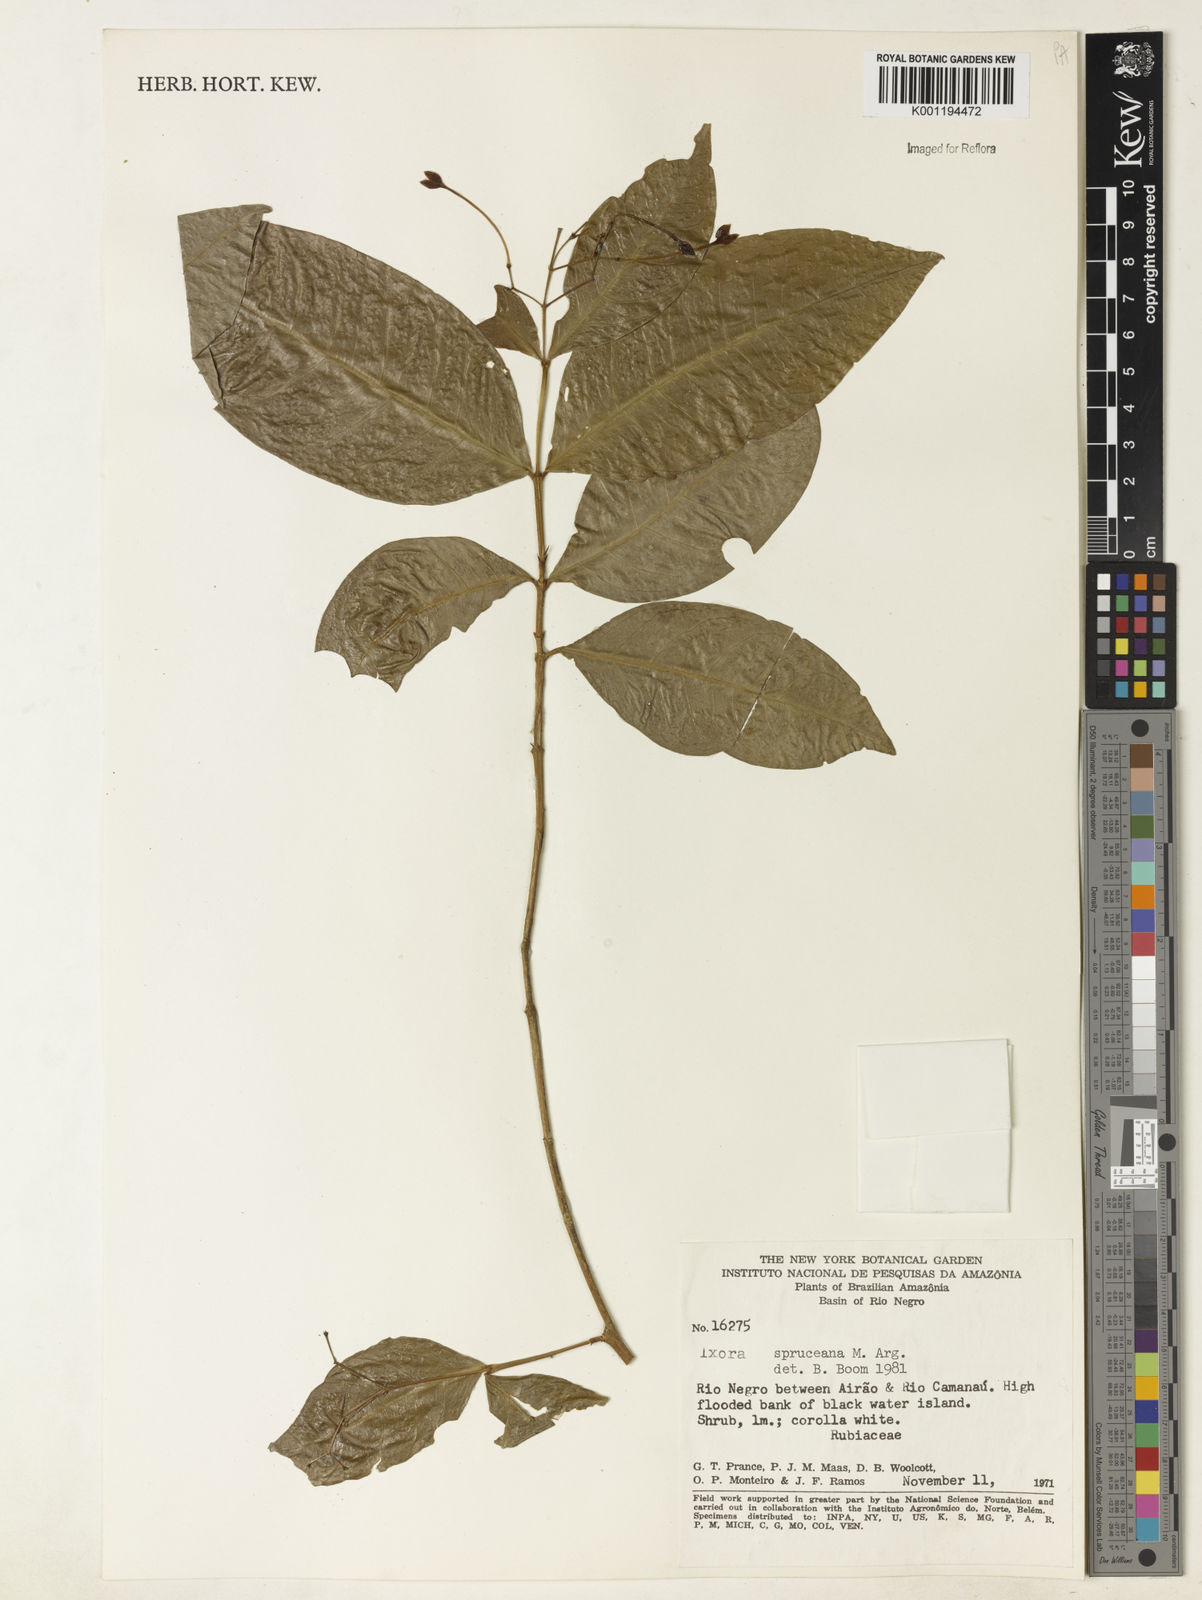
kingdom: Plantae
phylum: Tracheophyta
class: Magnoliopsida
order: Gentianales
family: Rubiaceae
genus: Ixora
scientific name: Ixora
